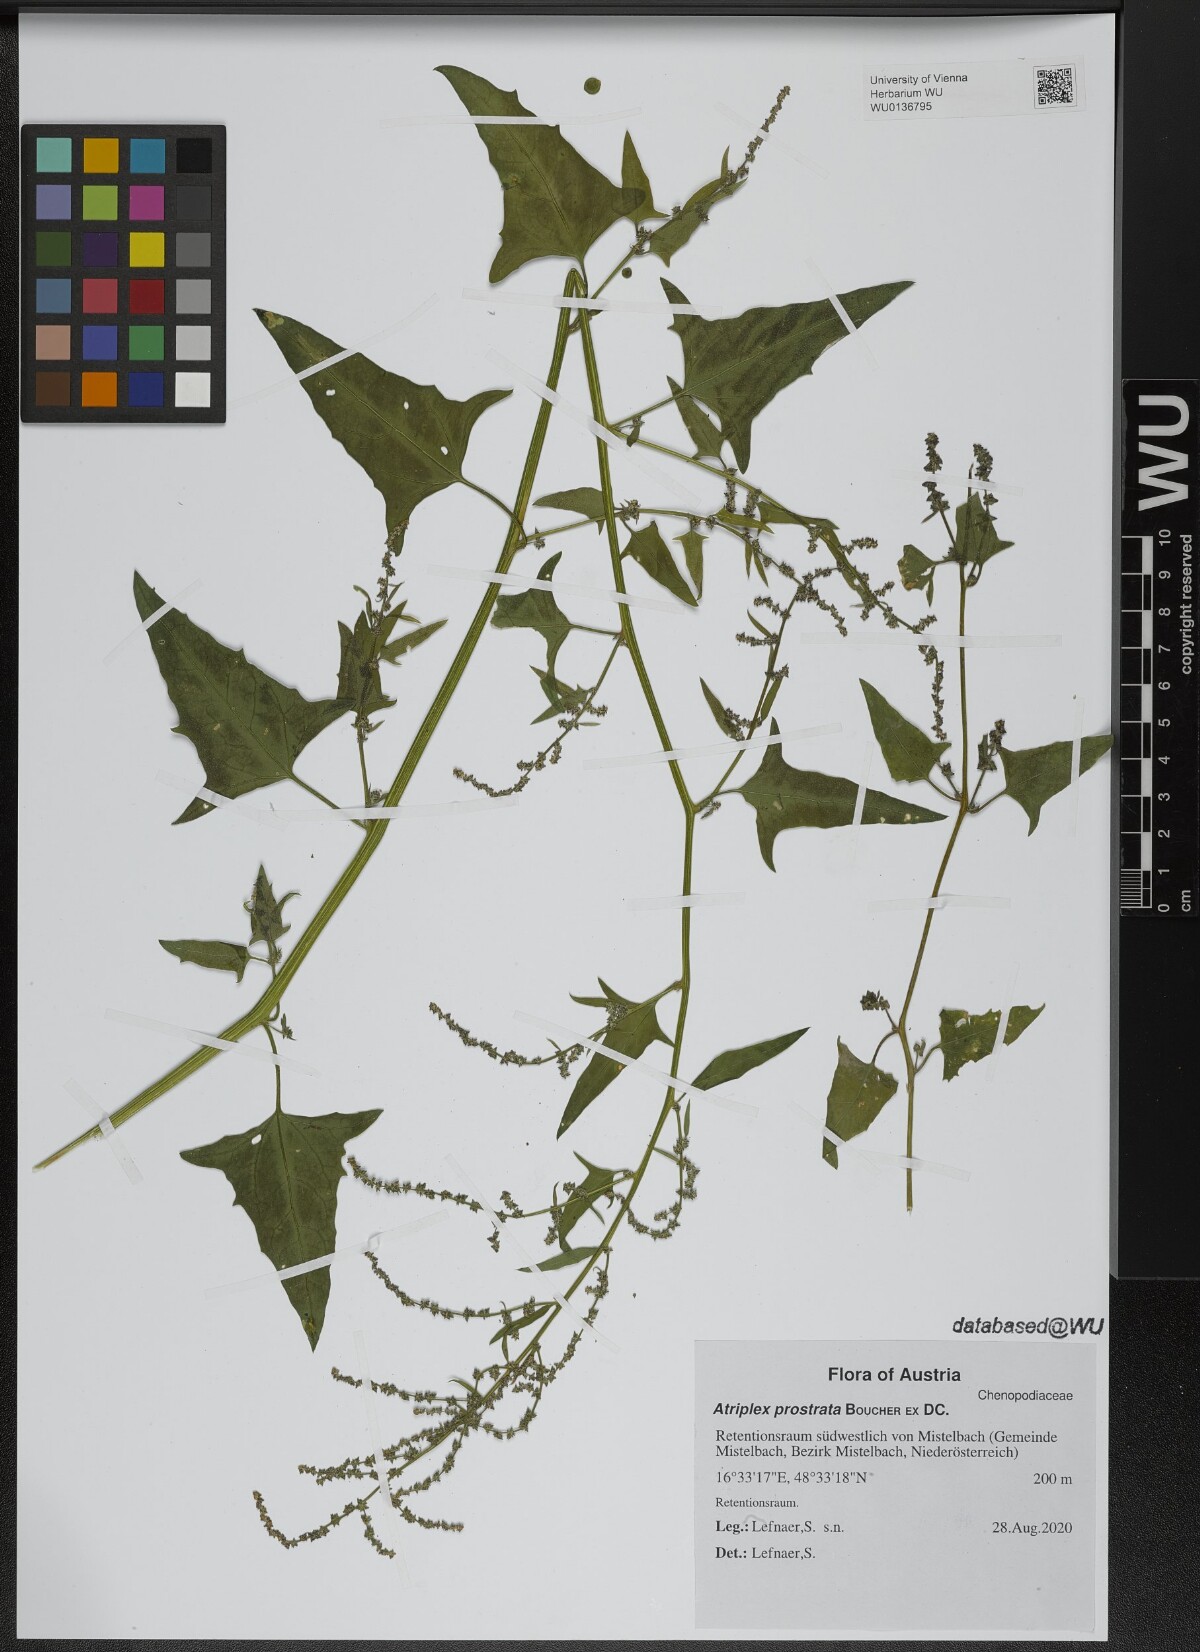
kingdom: Plantae
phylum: Tracheophyta
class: Magnoliopsida
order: Caryophyllales
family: Amaranthaceae
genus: Atriplex
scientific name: Atriplex prostrata
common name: Spear-leaved orache
